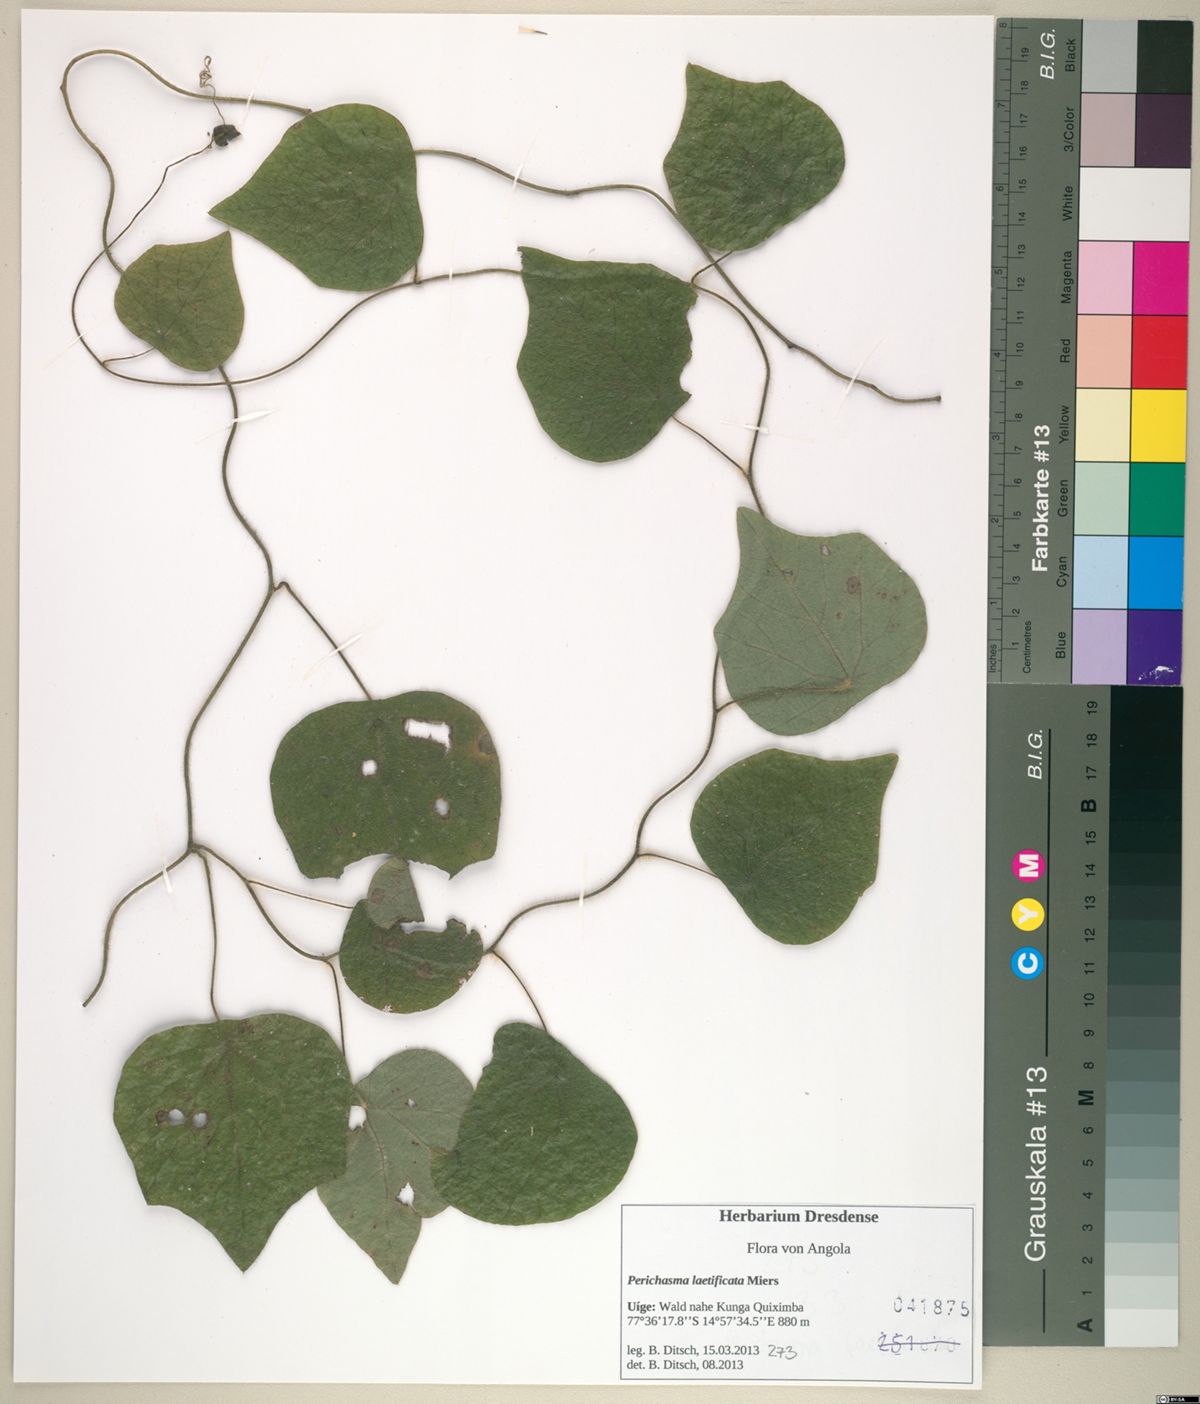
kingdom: Plantae
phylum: Tracheophyta
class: Magnoliopsida
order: Ranunculales
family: Menispermaceae
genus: Cissampelos
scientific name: Cissampelos owariensis
